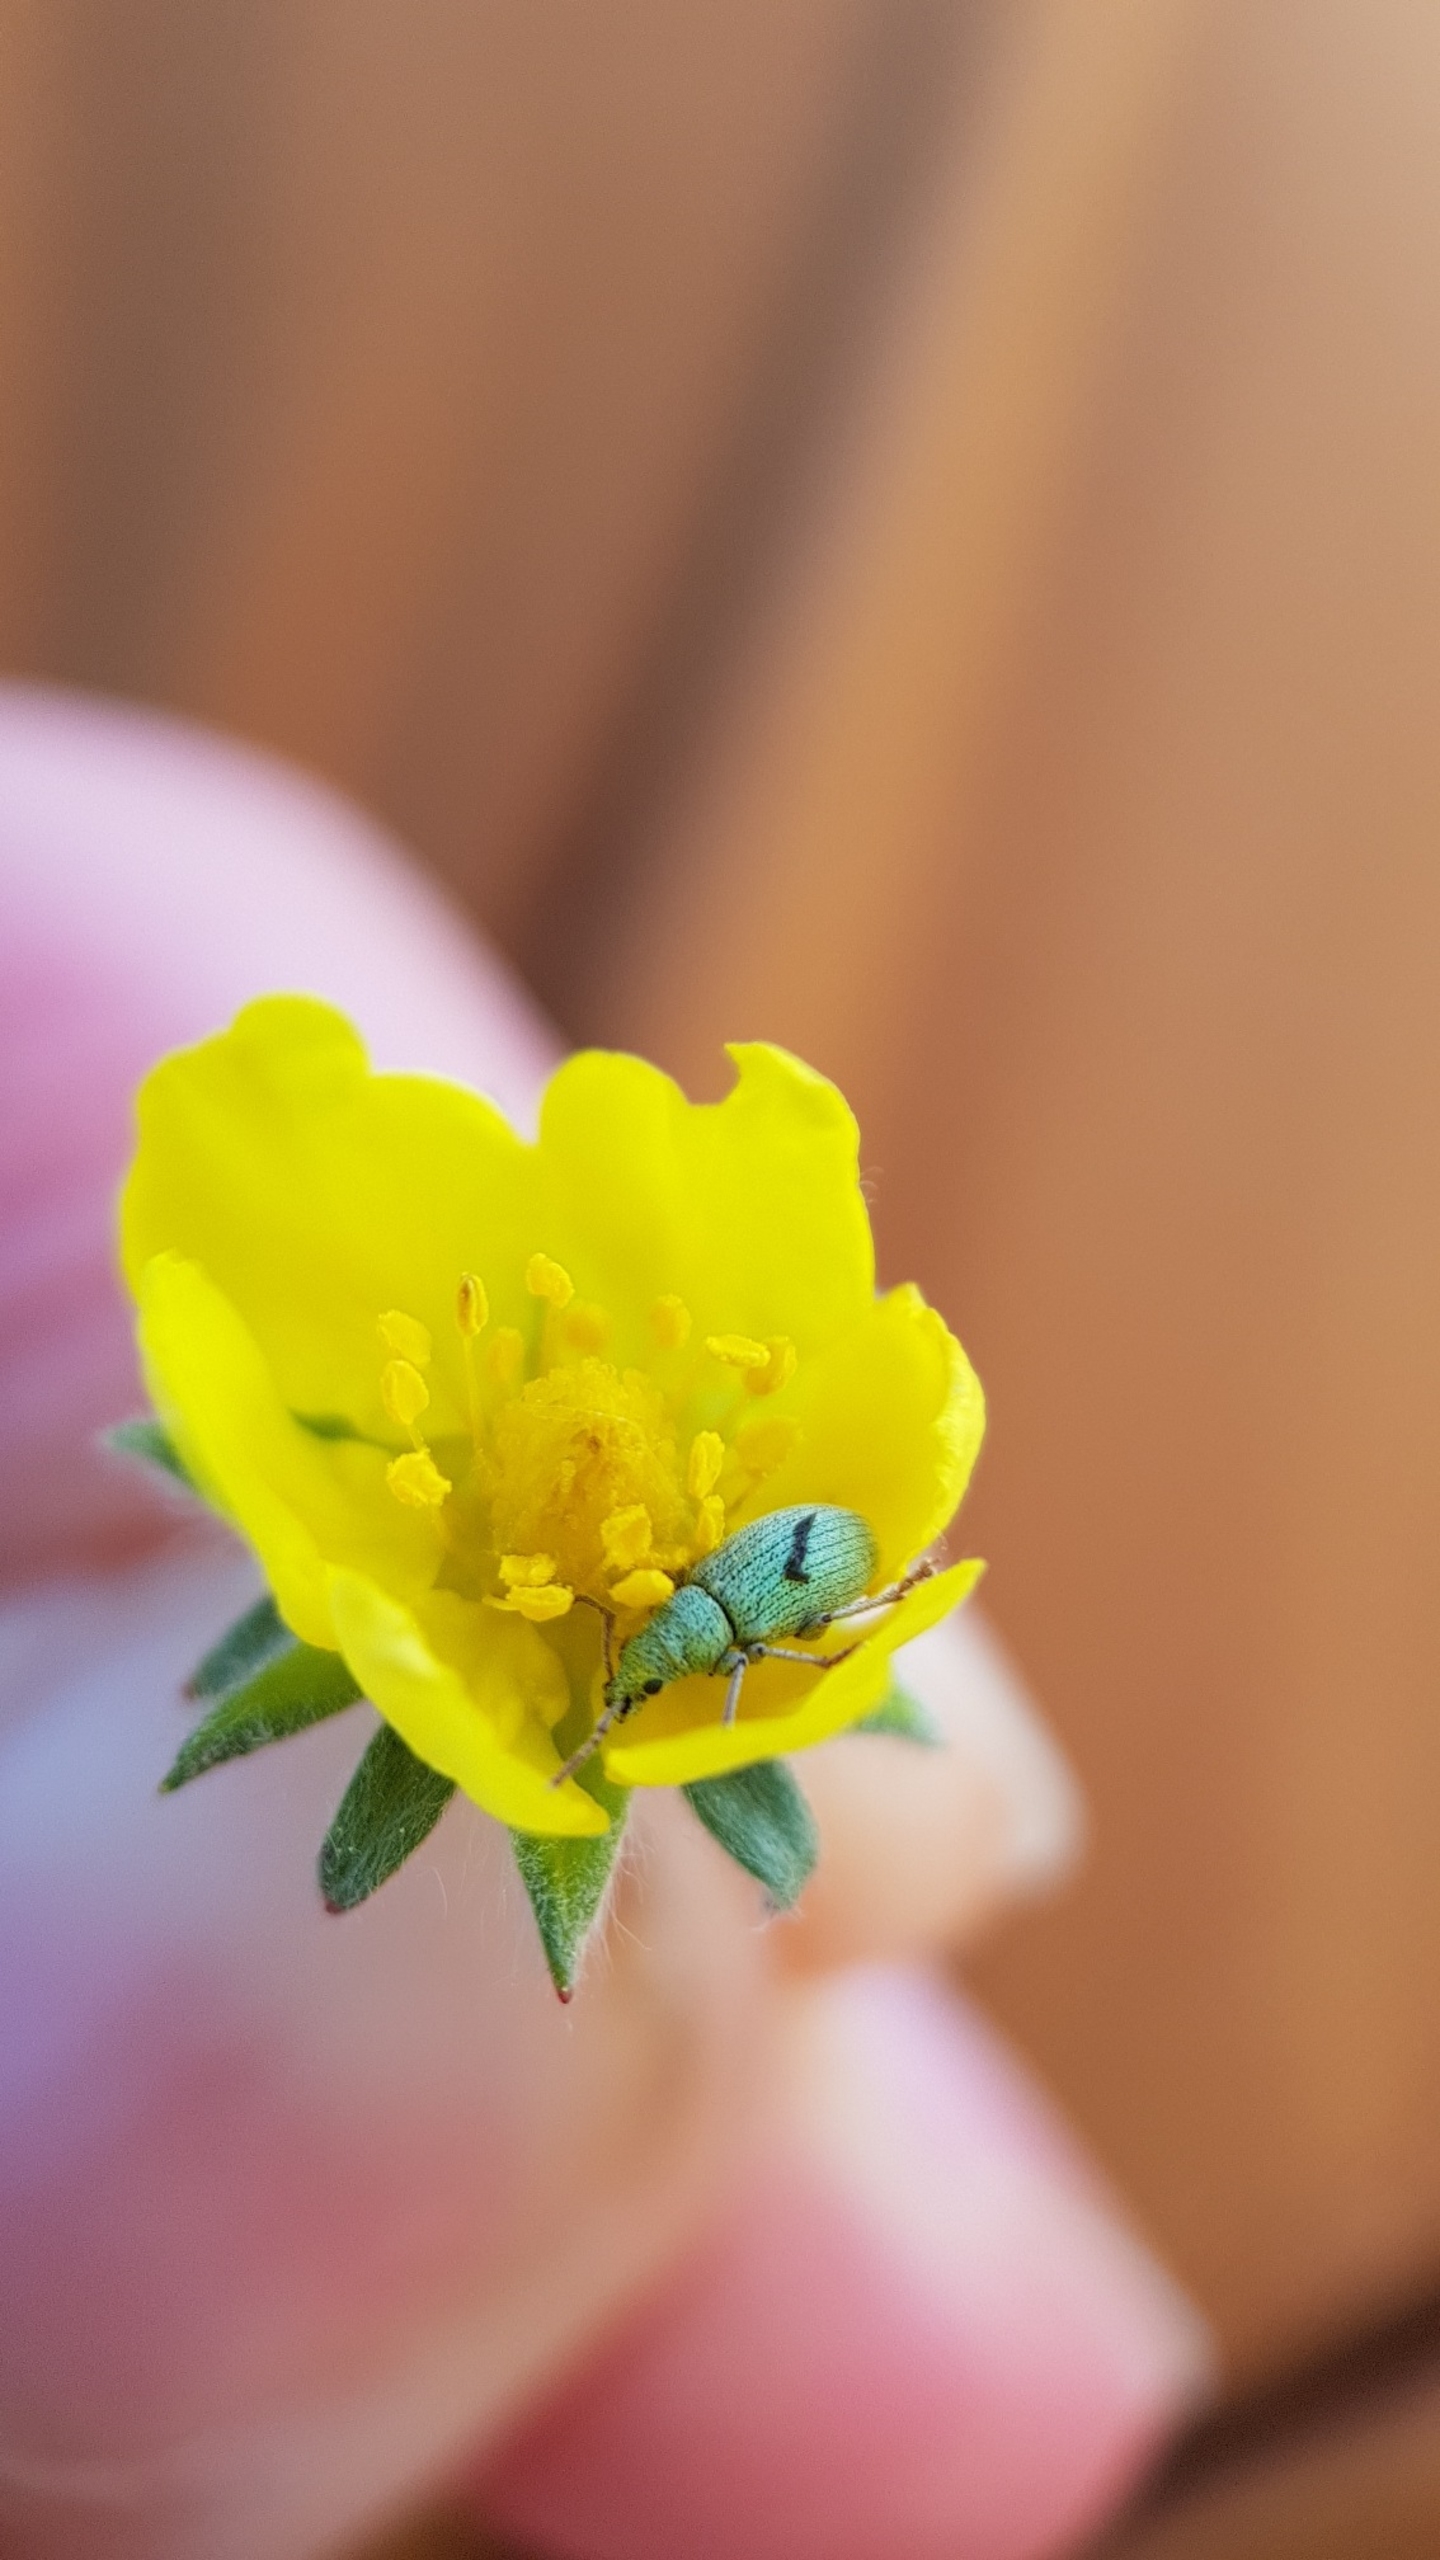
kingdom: Animalia
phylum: Arthropoda
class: Insecta
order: Coleoptera
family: Curculionidae
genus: Phyllobius
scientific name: Phyllobius virideaeris
